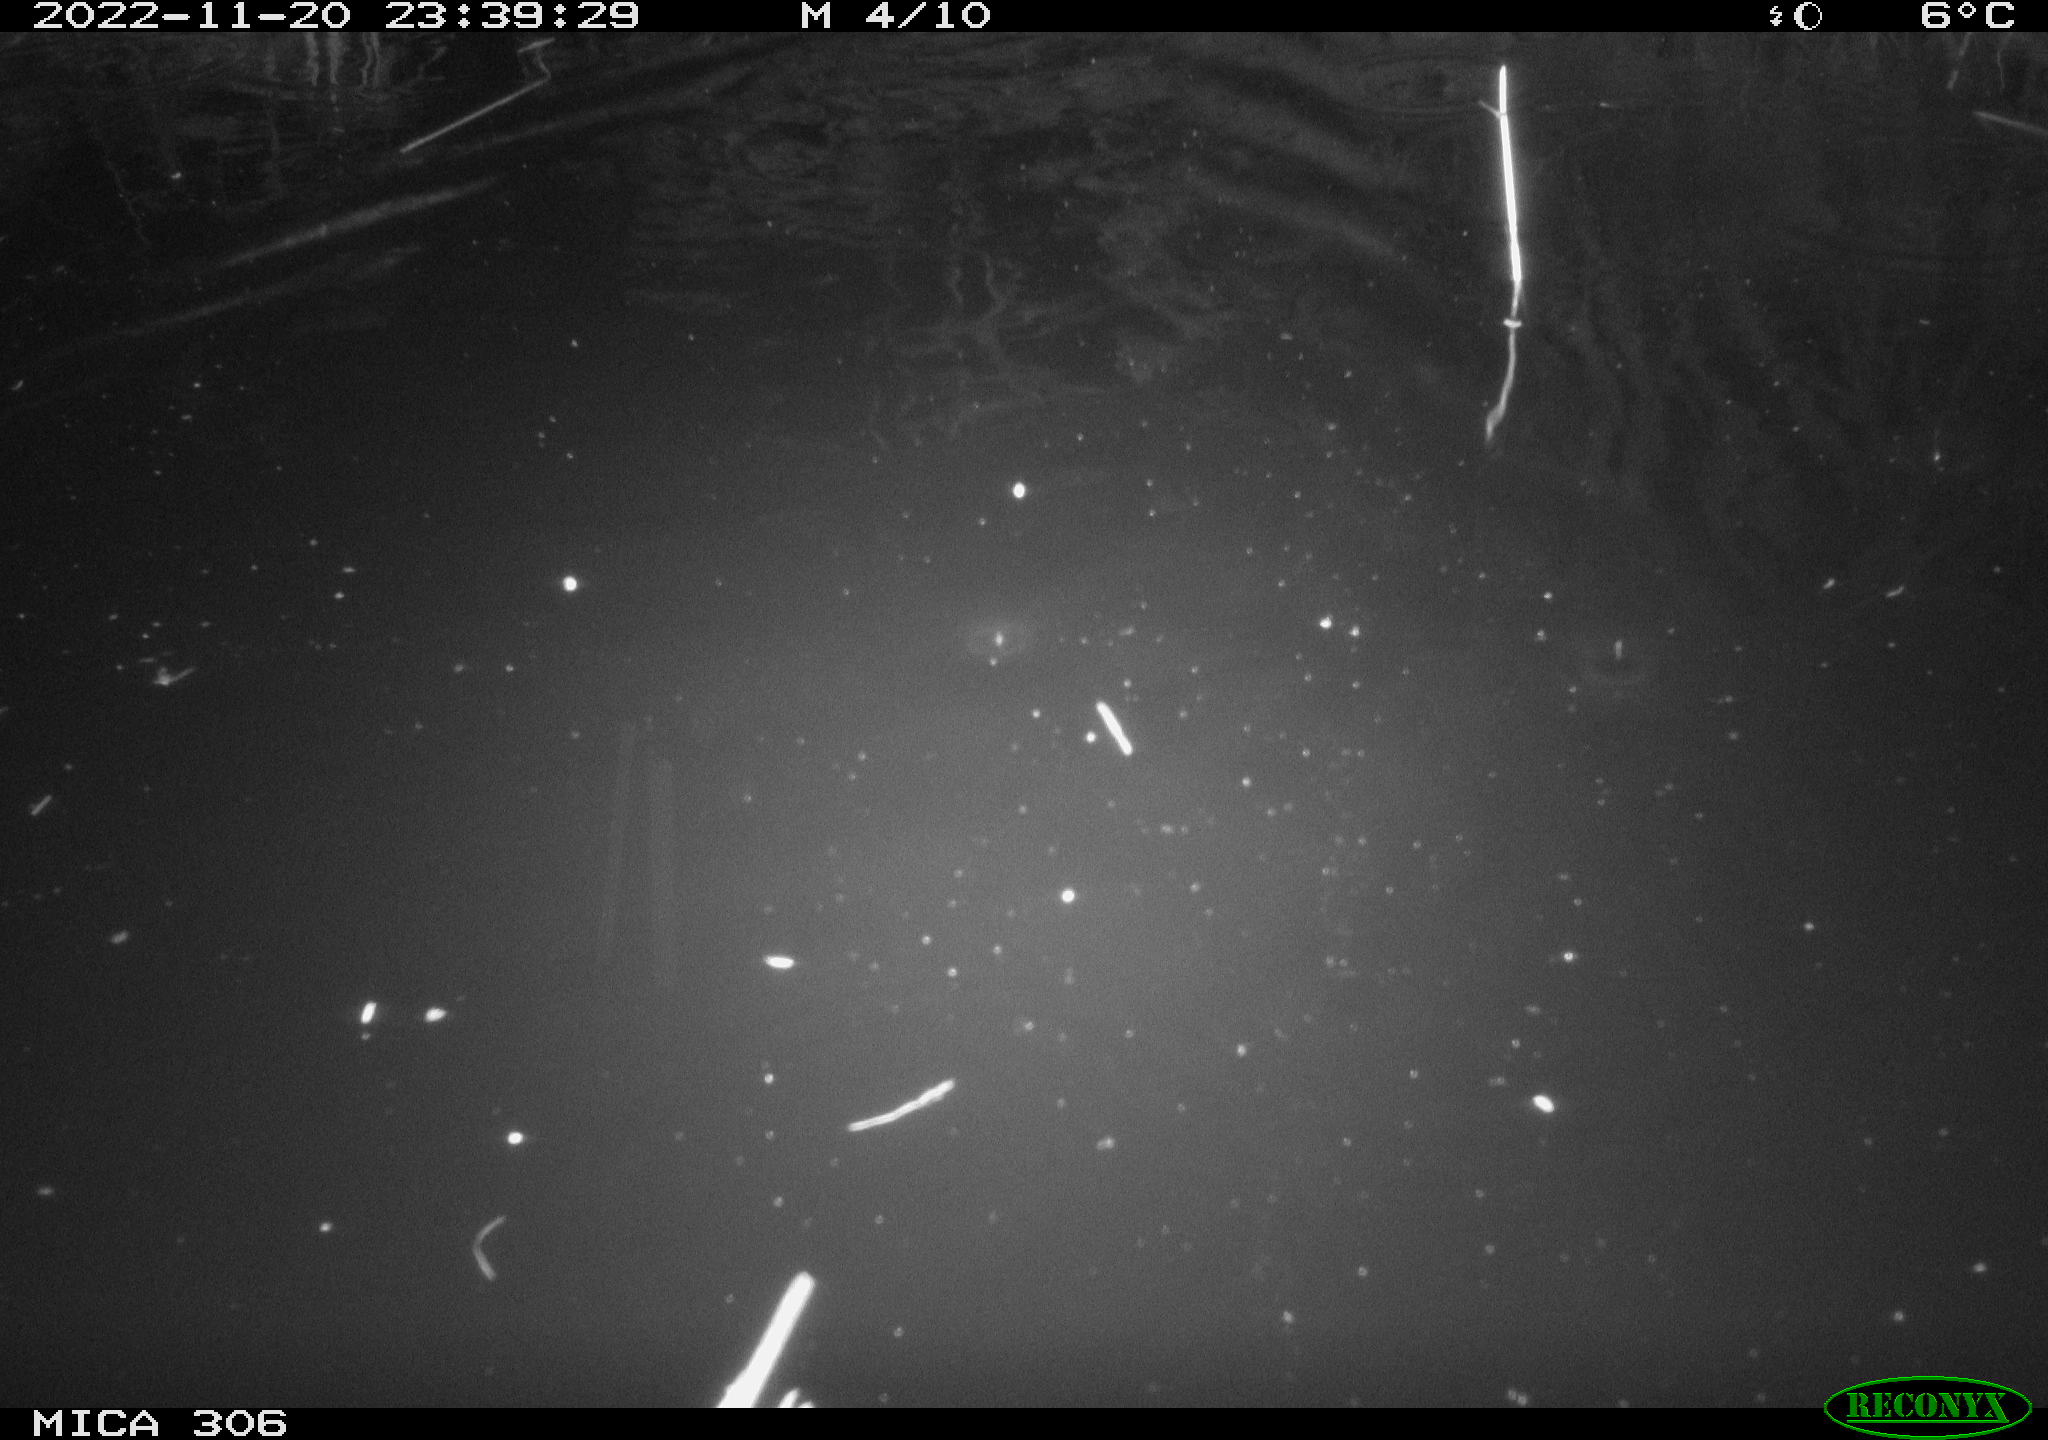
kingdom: Animalia
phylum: Chordata
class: Mammalia
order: Rodentia
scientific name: Rodentia
